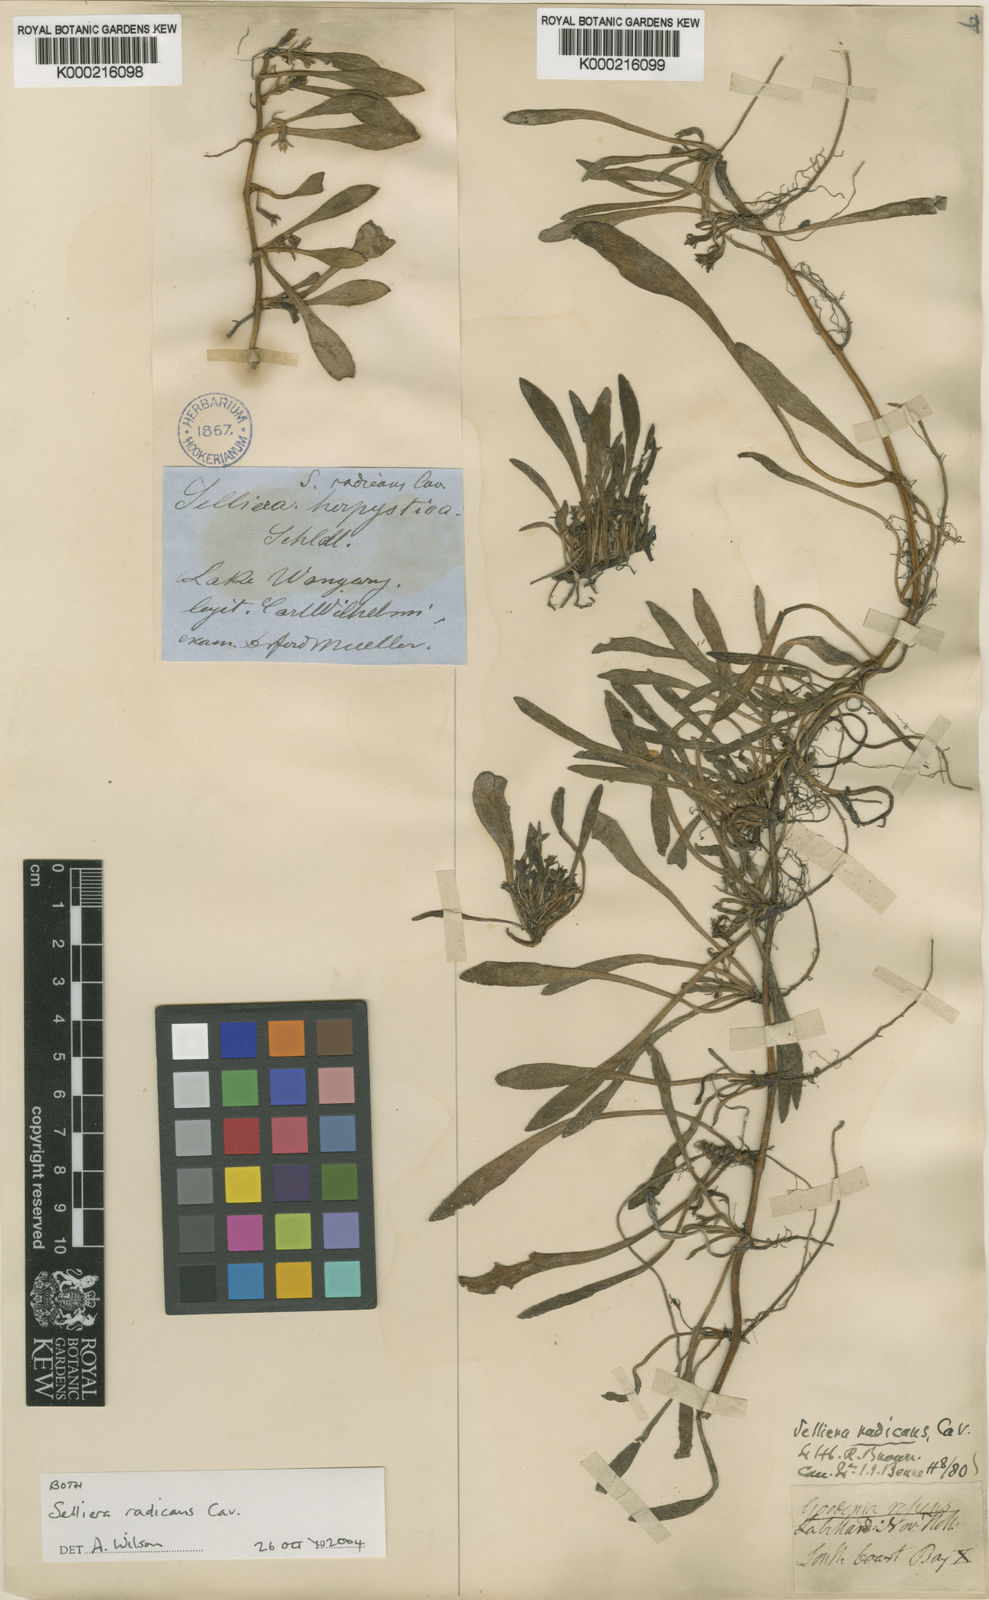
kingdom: Plantae
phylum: Tracheophyta
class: Magnoliopsida
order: Asterales
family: Goodeniaceae
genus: Goodenia
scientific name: Goodenia radicans
